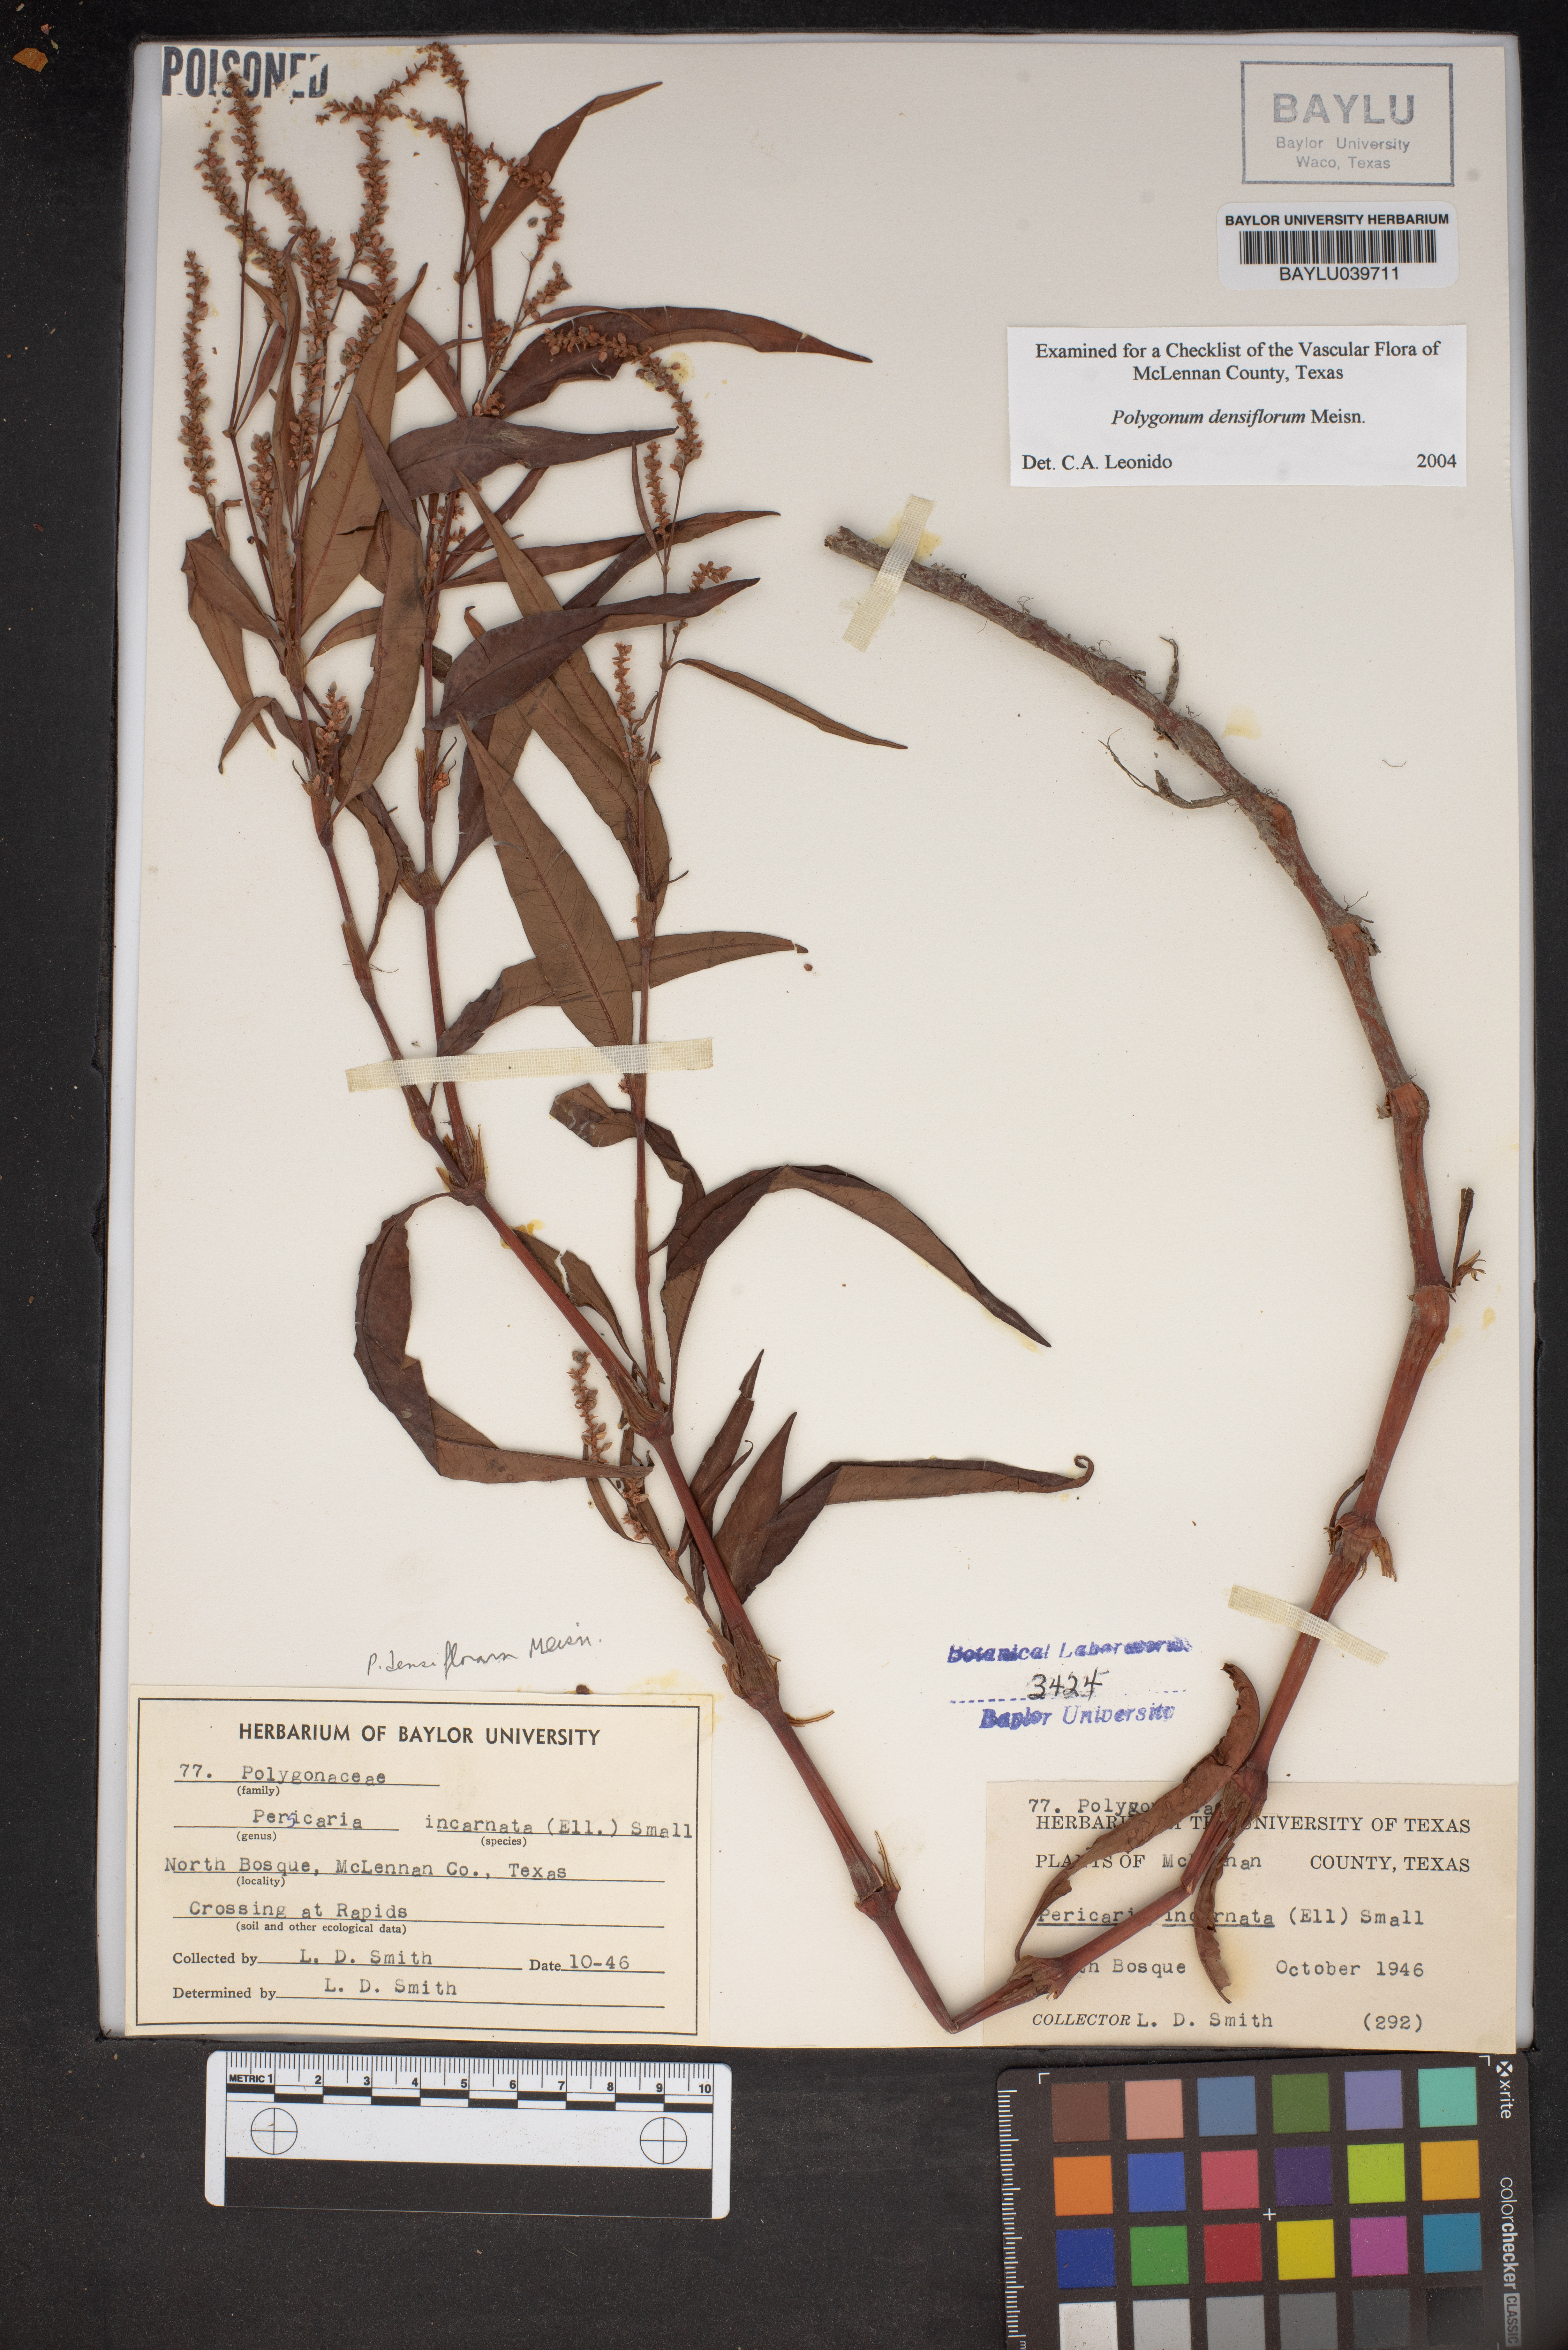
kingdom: Plantae
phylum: Tracheophyta
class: Magnoliopsida
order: Caryophyllales
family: Polygonaceae
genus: Persicaria
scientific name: Persicaria lapathifolia
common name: Curlytop knotweed
